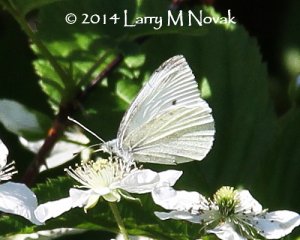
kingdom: Animalia
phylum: Arthropoda
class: Insecta
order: Lepidoptera
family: Pieridae
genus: Pieris
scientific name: Pieris rapae
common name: Cabbage White
